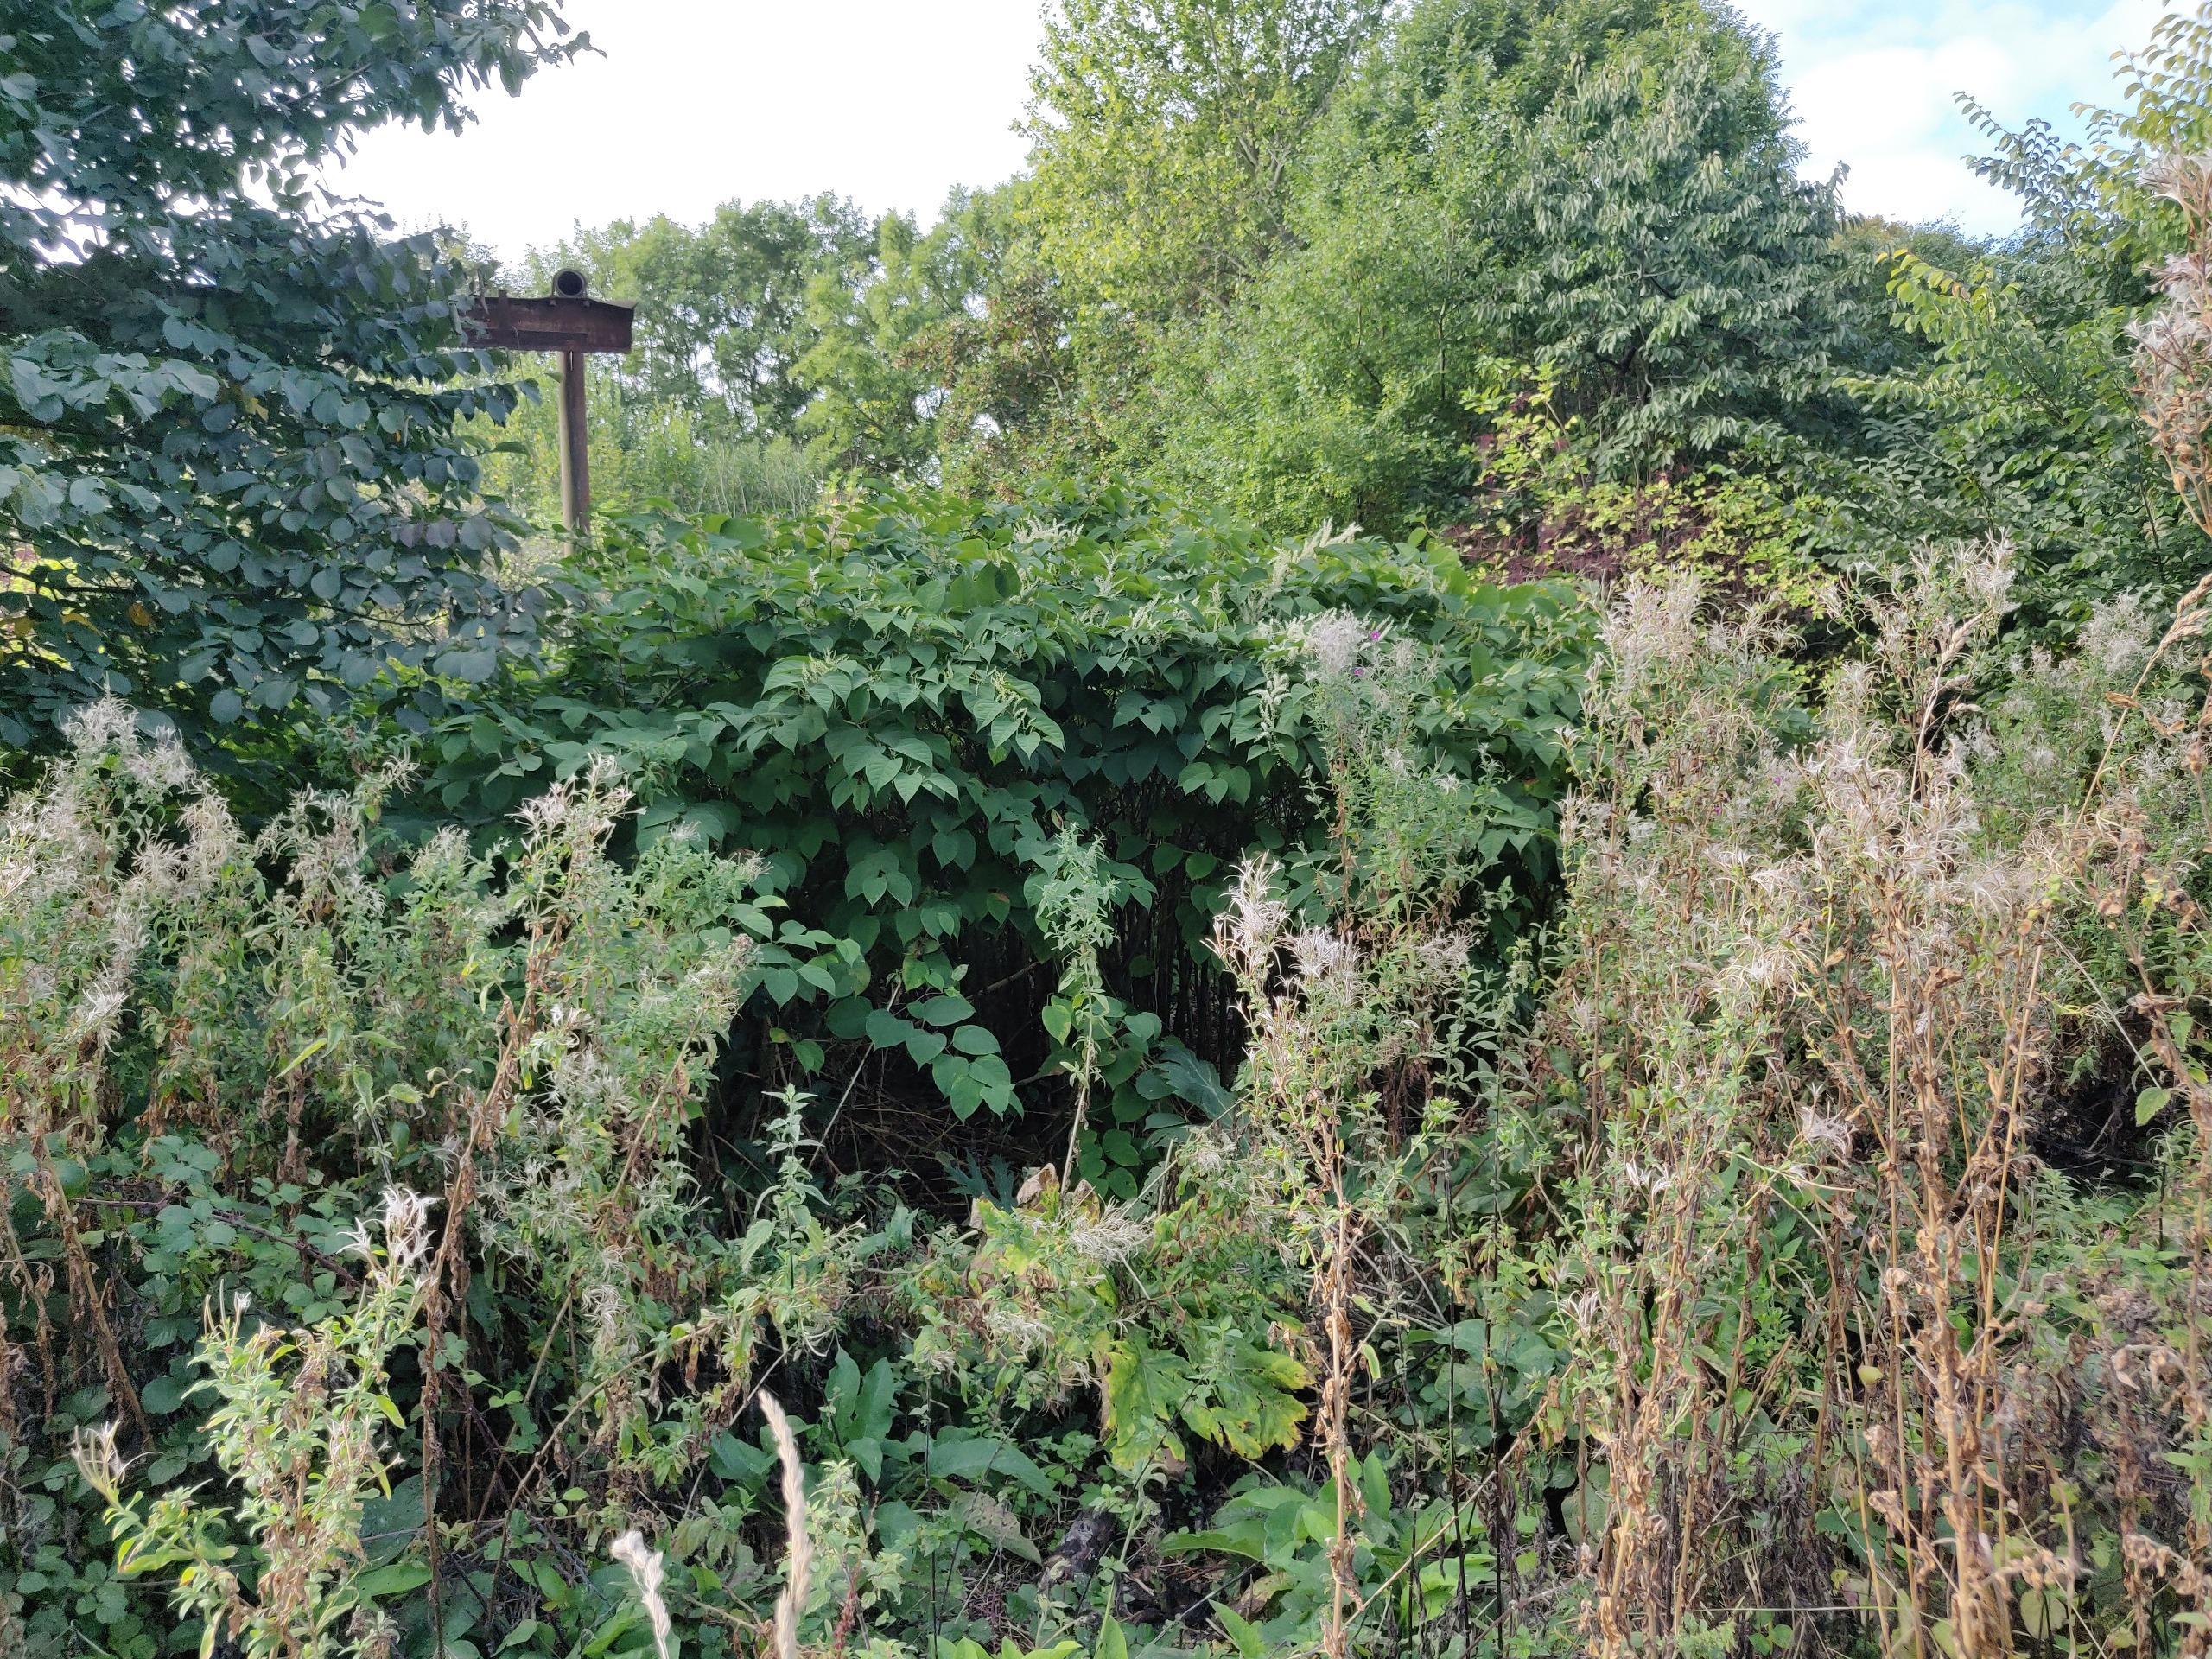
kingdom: Plantae
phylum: Tracheophyta
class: Magnoliopsida
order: Apiales
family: Apiaceae
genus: Heracleum
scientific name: Heracleum mantegazzianum
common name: Kæmpe-bjørneklo
